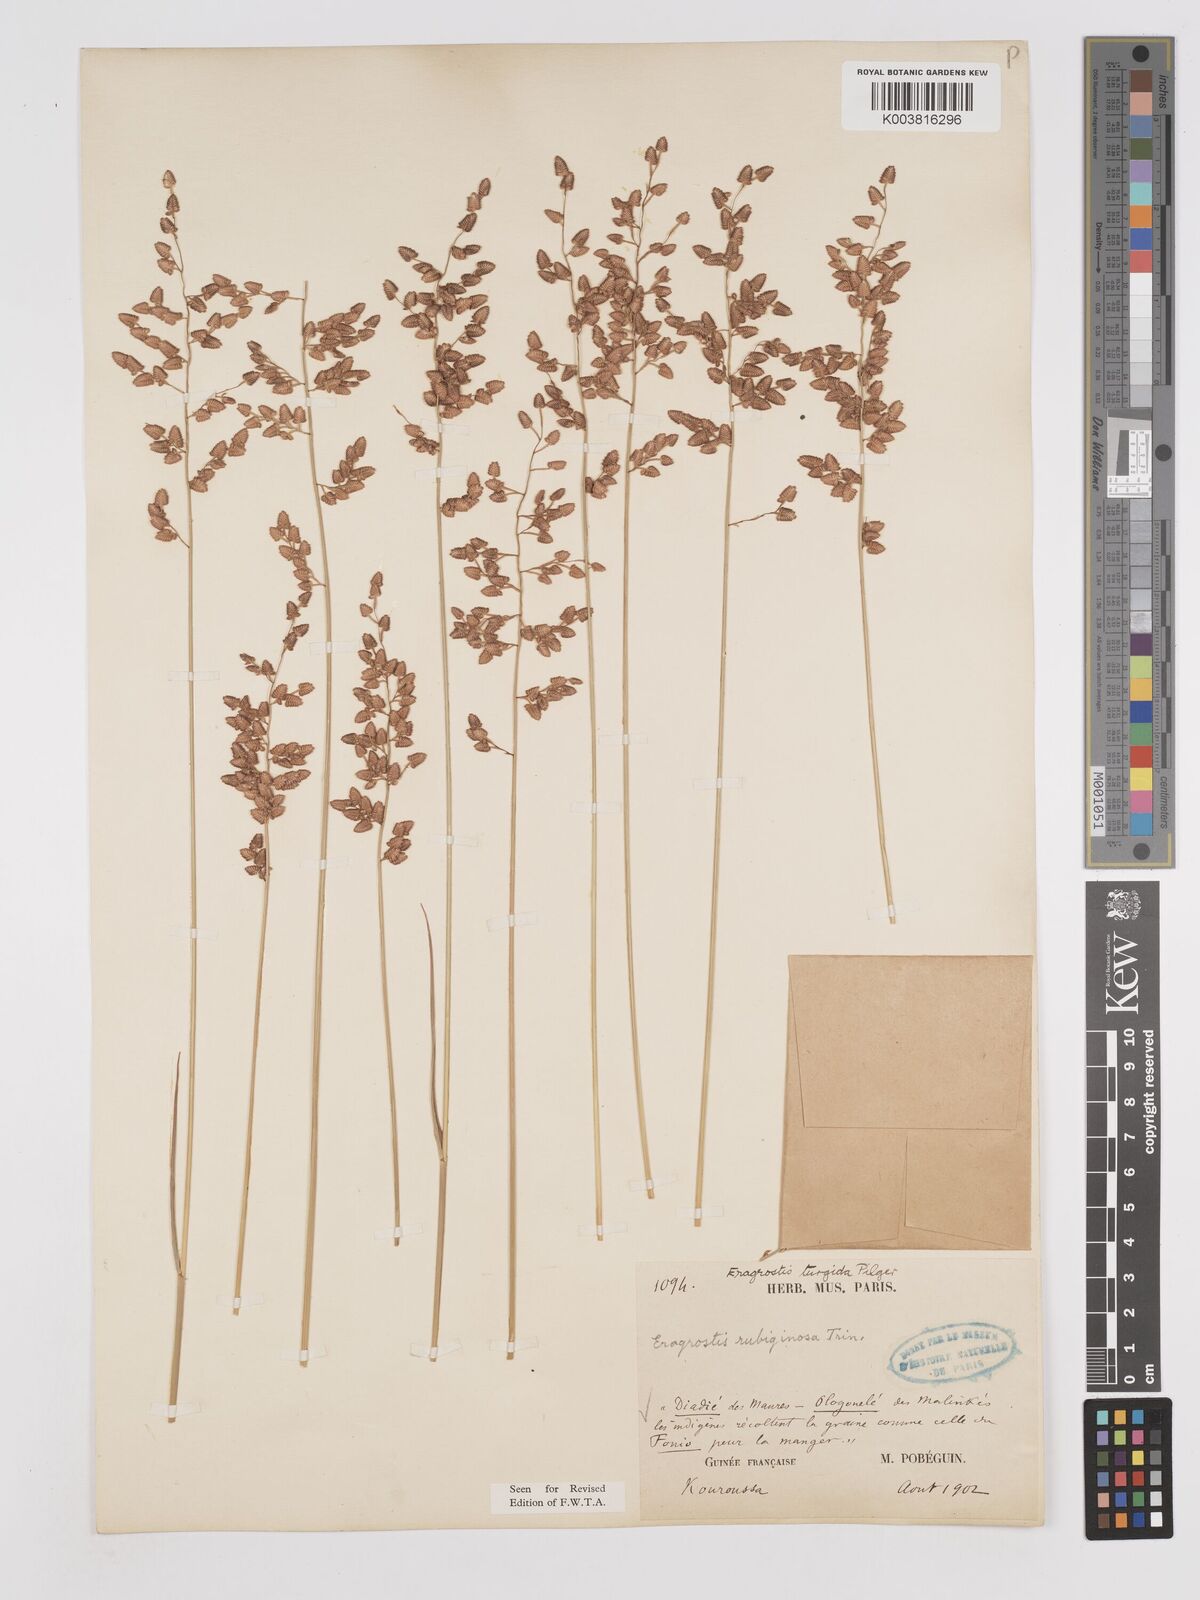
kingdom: Plantae
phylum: Tracheophyta
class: Liliopsida
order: Poales
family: Poaceae
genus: Eragrostis
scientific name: Eragrostis turgida
